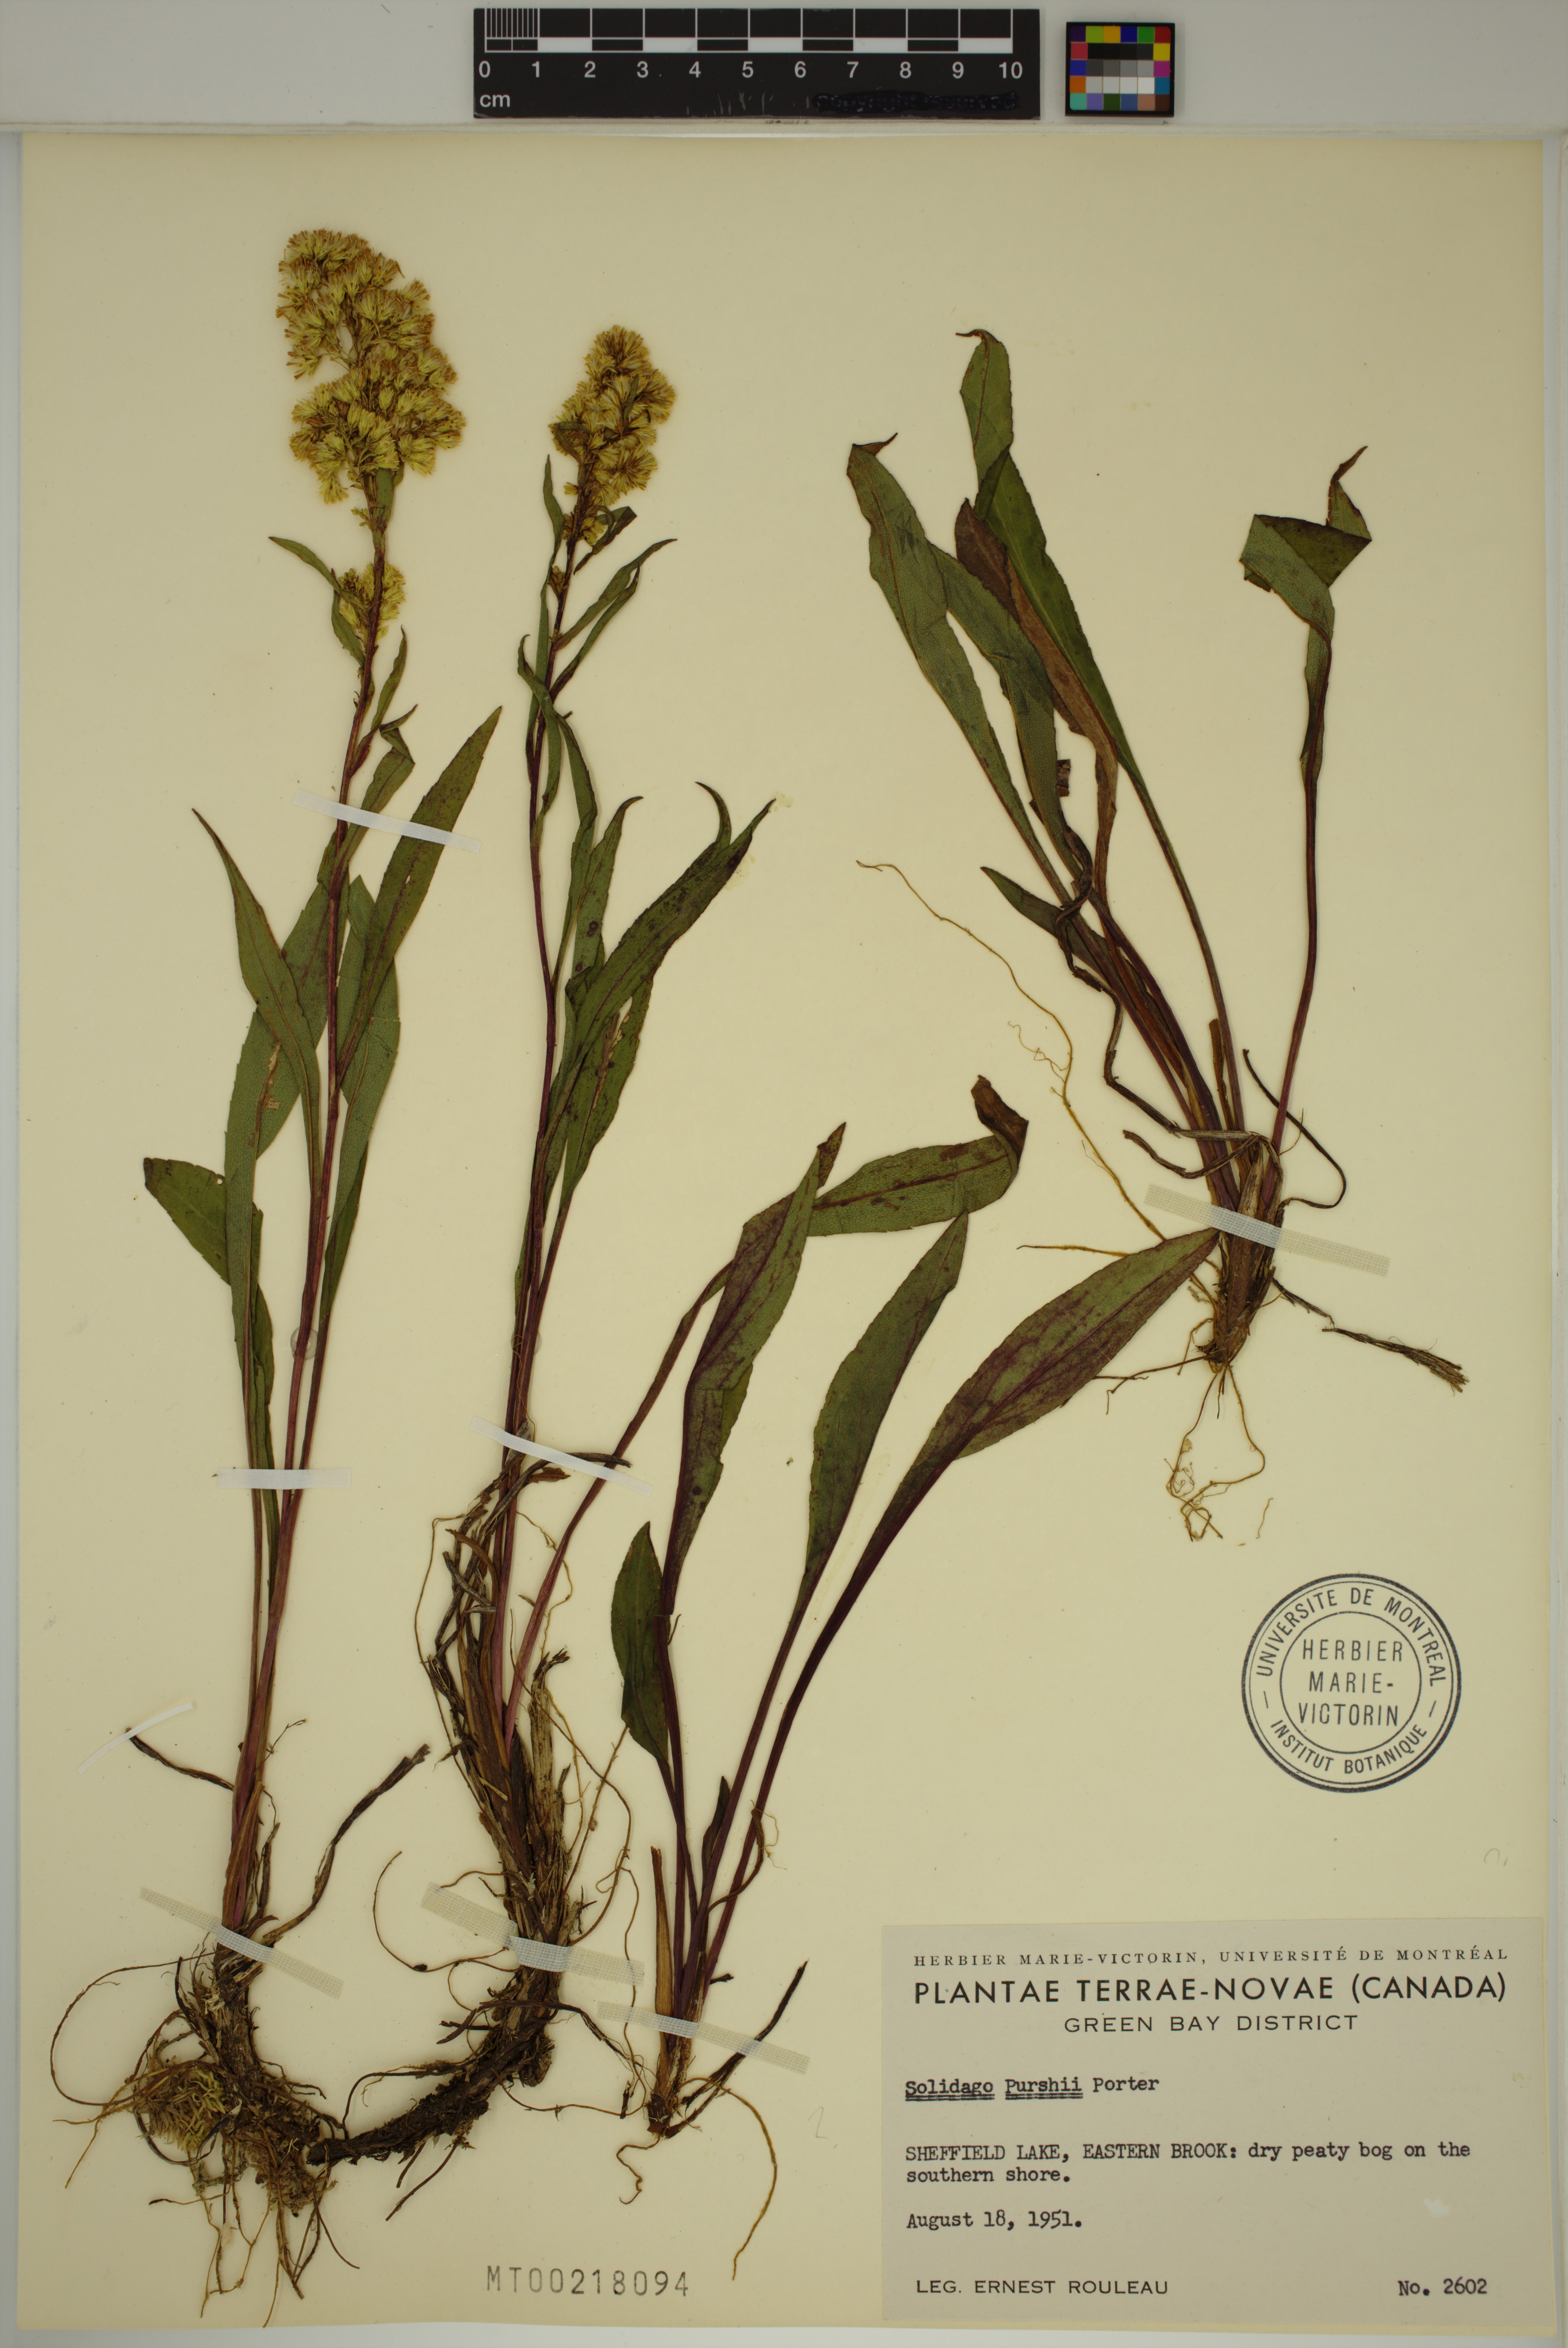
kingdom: Plantae
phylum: Tracheophyta
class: Magnoliopsida
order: Asterales
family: Asteraceae
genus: Solidago
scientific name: Solidago uliginosa
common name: Bog goldenrod
